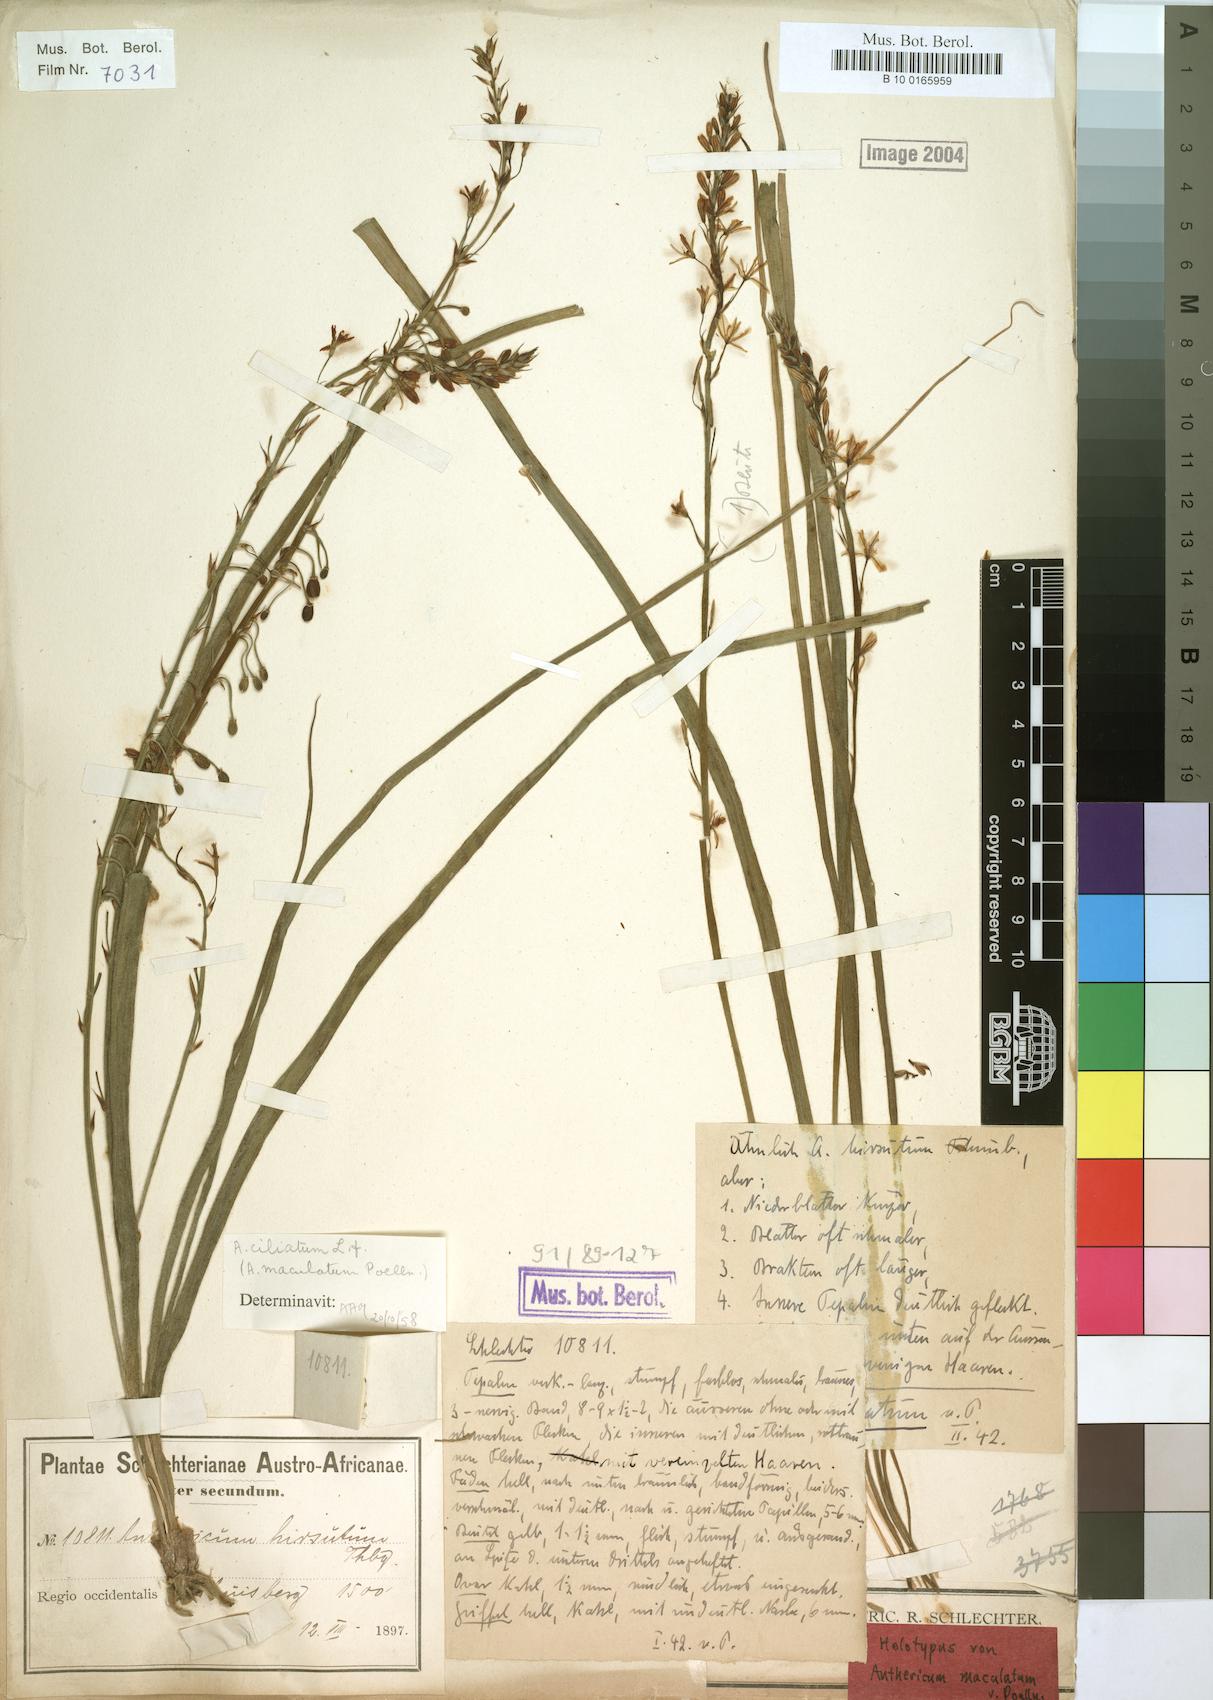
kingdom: Plantae
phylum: Tracheophyta
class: Liliopsida
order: Asparagales
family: Asphodelaceae
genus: Trachyandra
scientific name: Trachyandra ciliata
